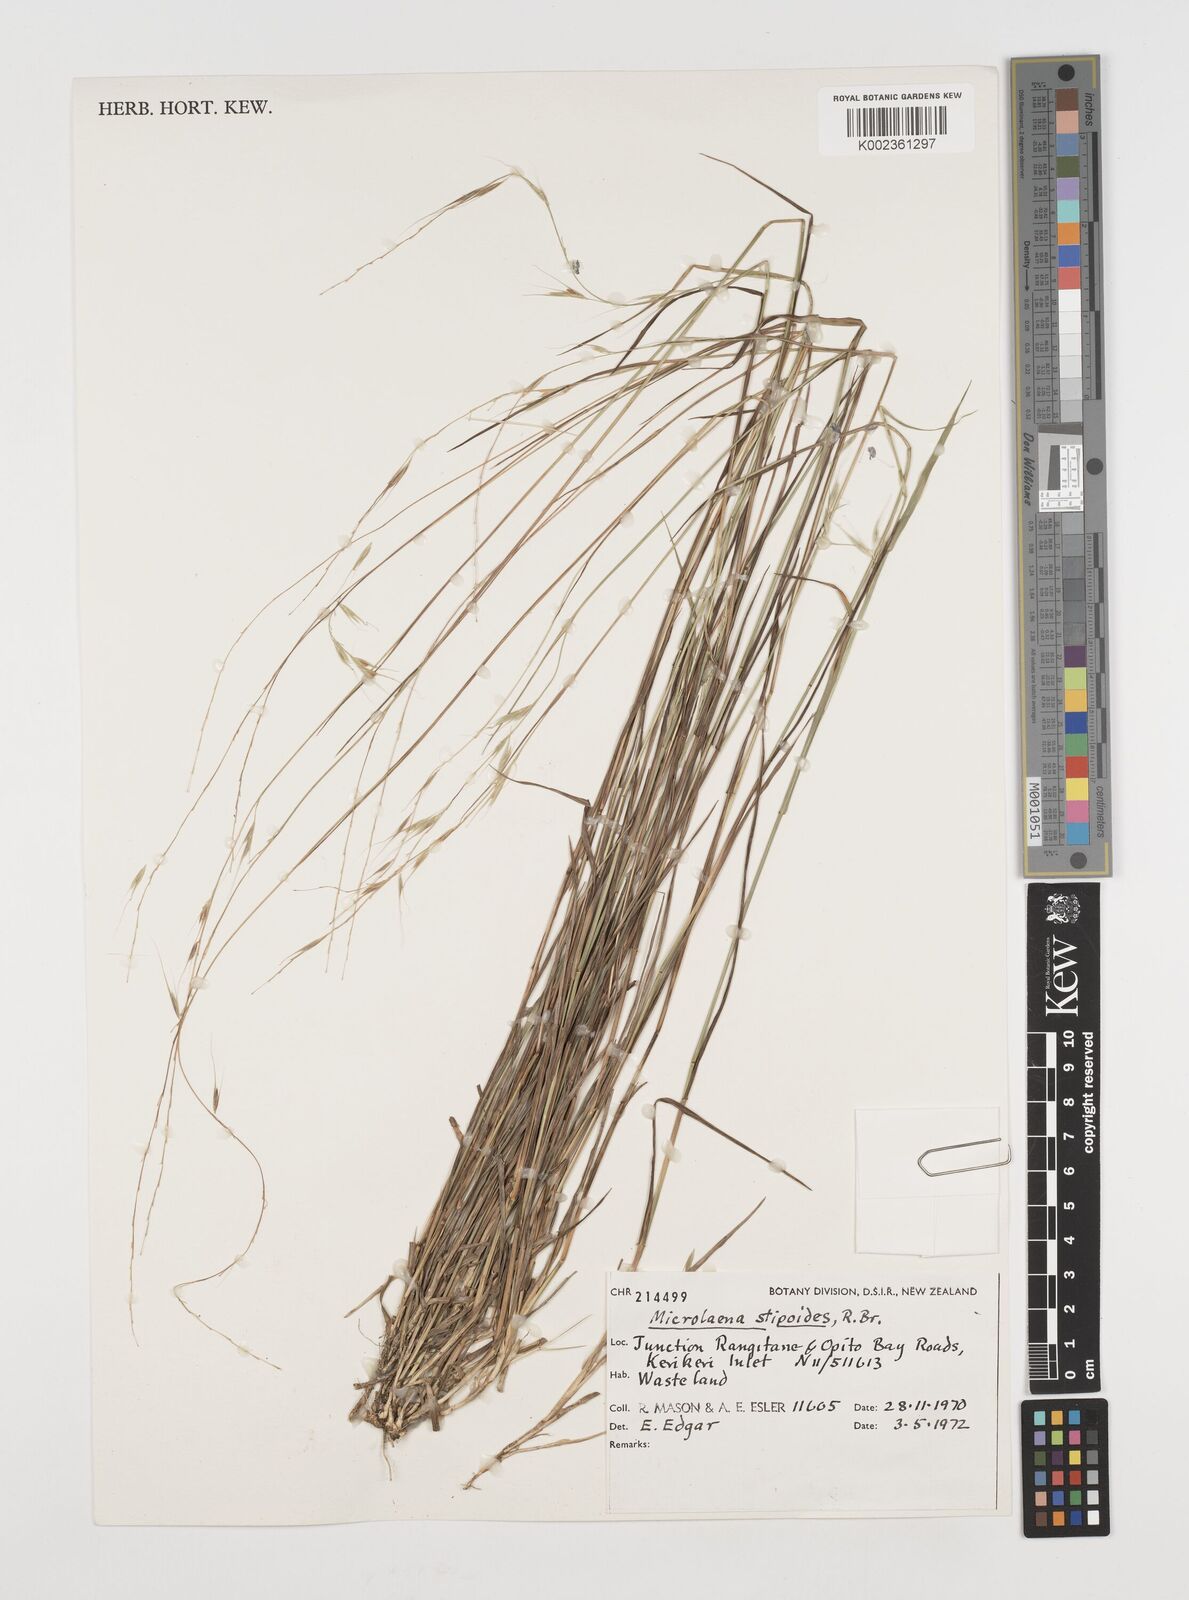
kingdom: Plantae
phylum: Tracheophyta
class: Liliopsida
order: Poales
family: Poaceae
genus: Microlaena
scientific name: Microlaena stipoides
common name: Meadow ricegrass
